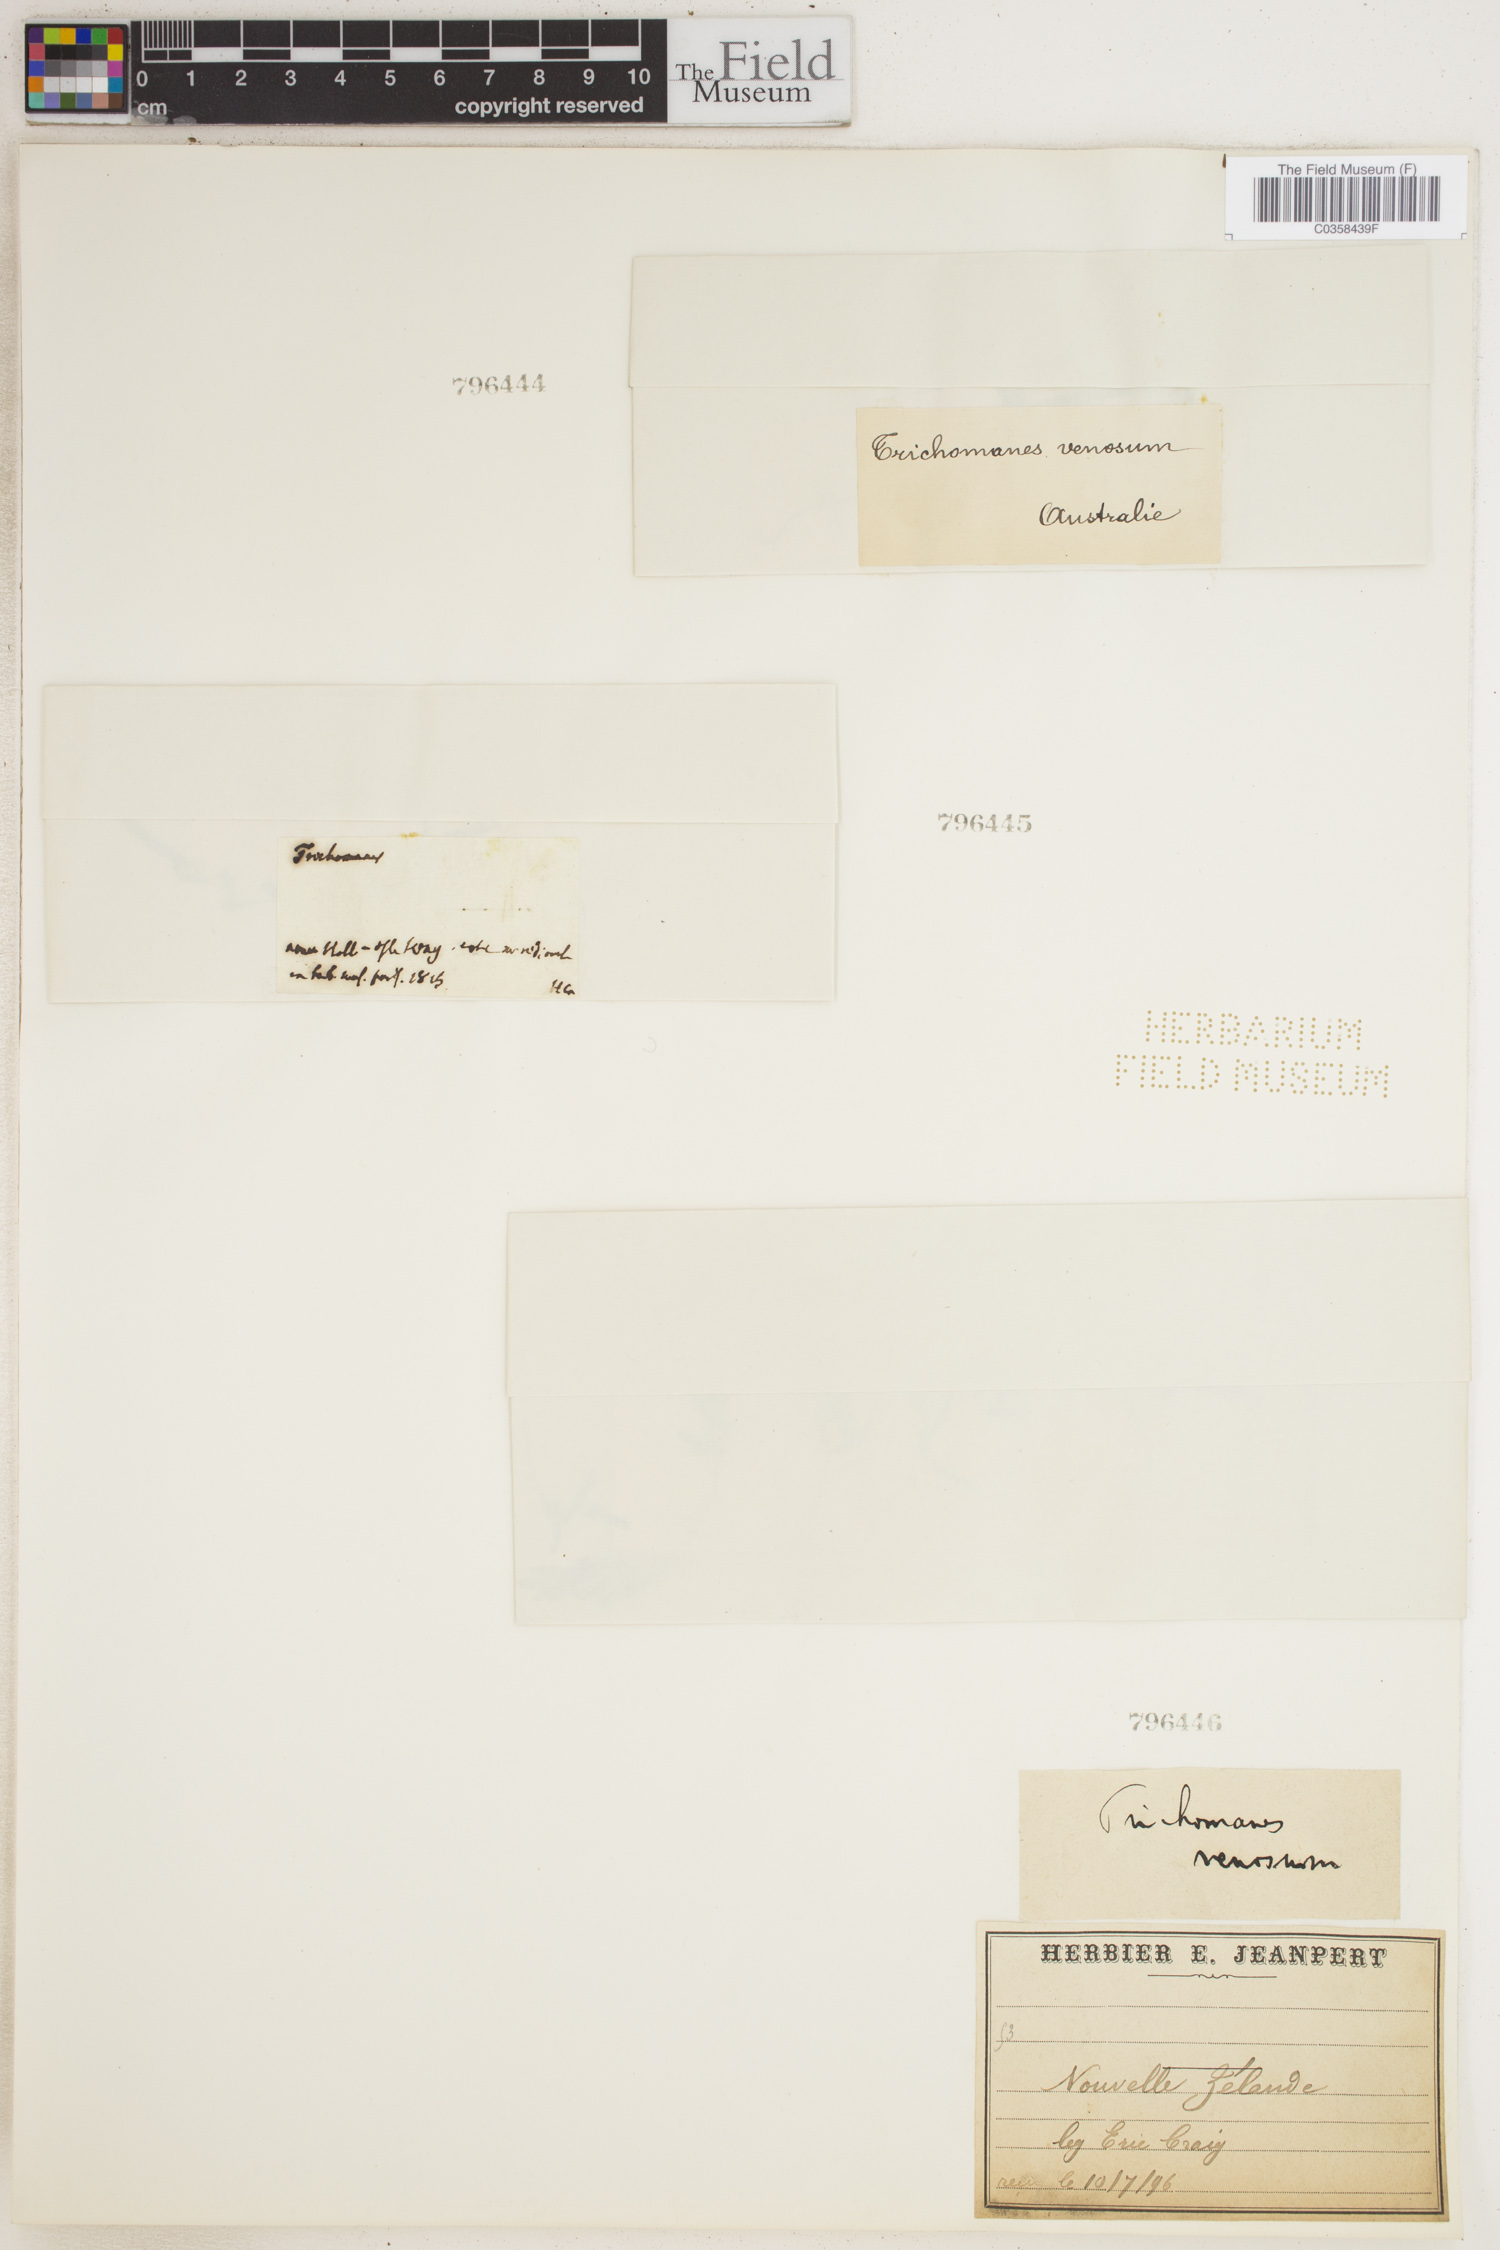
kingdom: Plantae
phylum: Tracheophyta
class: Polypodiopsida
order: Hymenophyllales
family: Hymenophyllaceae
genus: Polyphlebium
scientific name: Polyphlebium venosum
